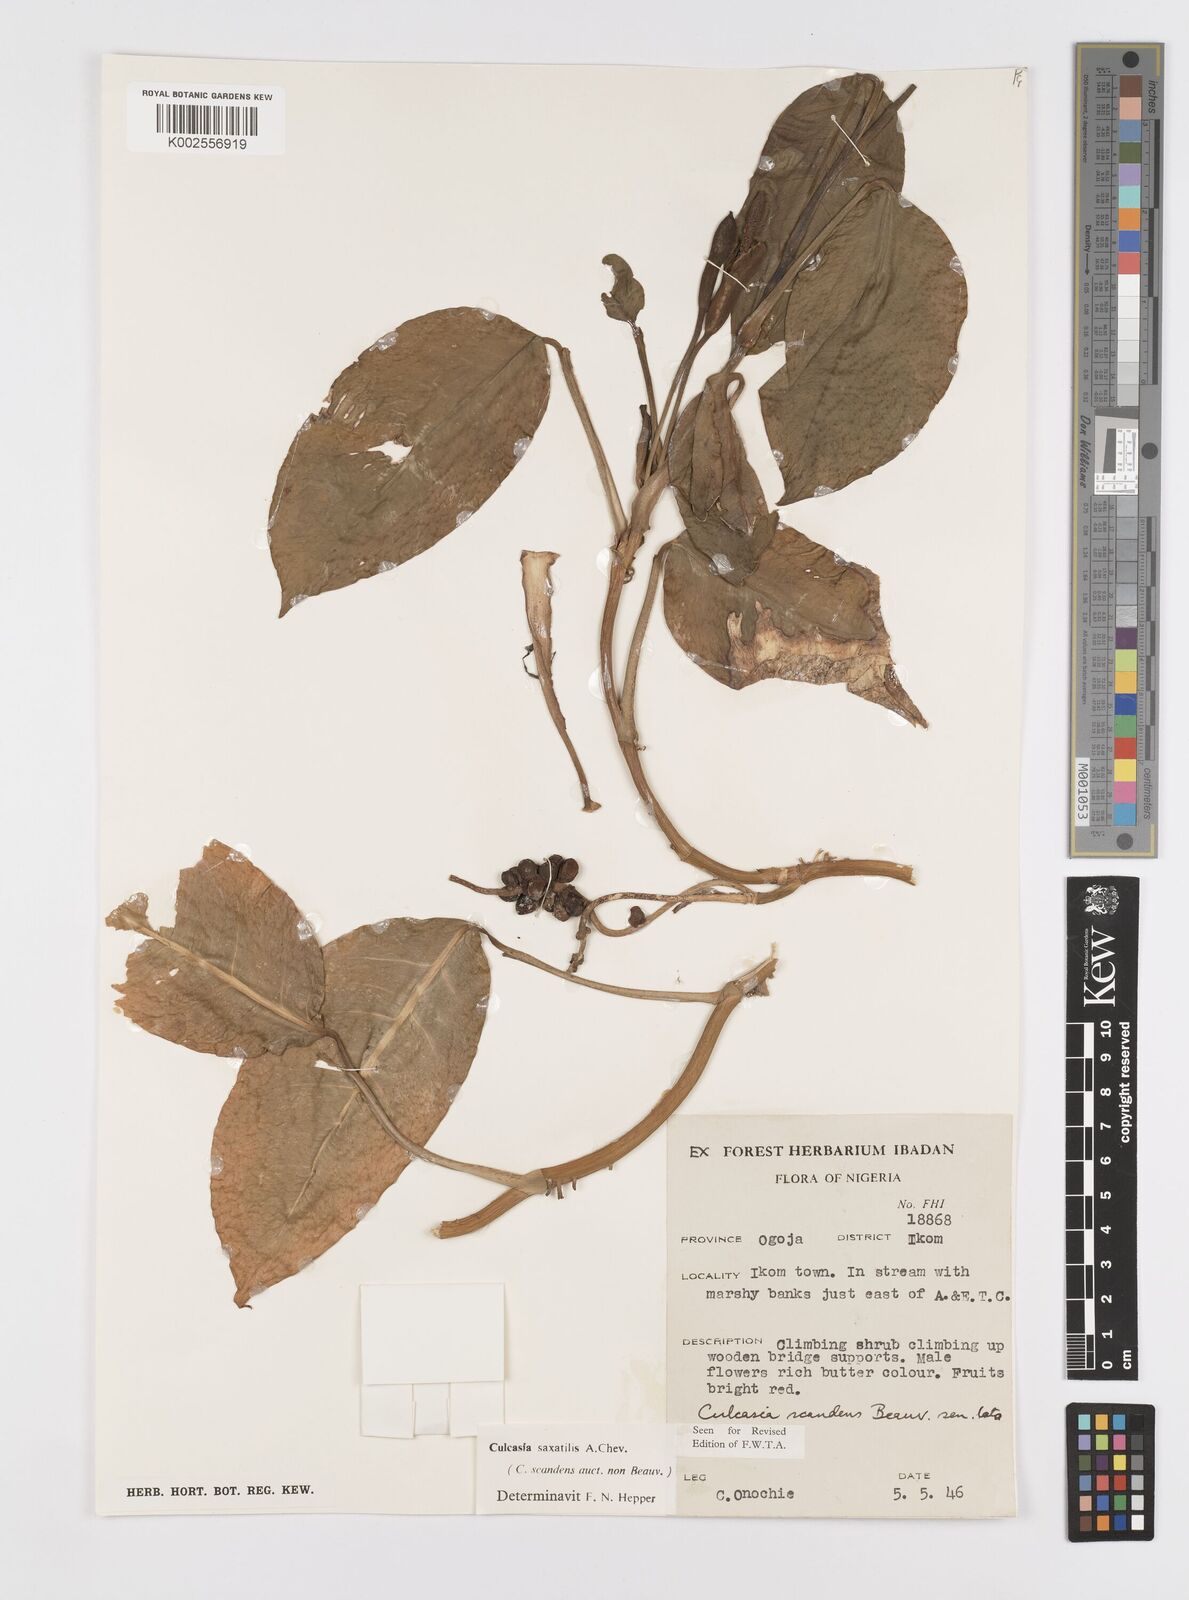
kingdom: Plantae
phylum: Tracheophyta
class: Liliopsida
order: Alismatales
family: Araceae
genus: Culcasia
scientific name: Culcasia scandens
